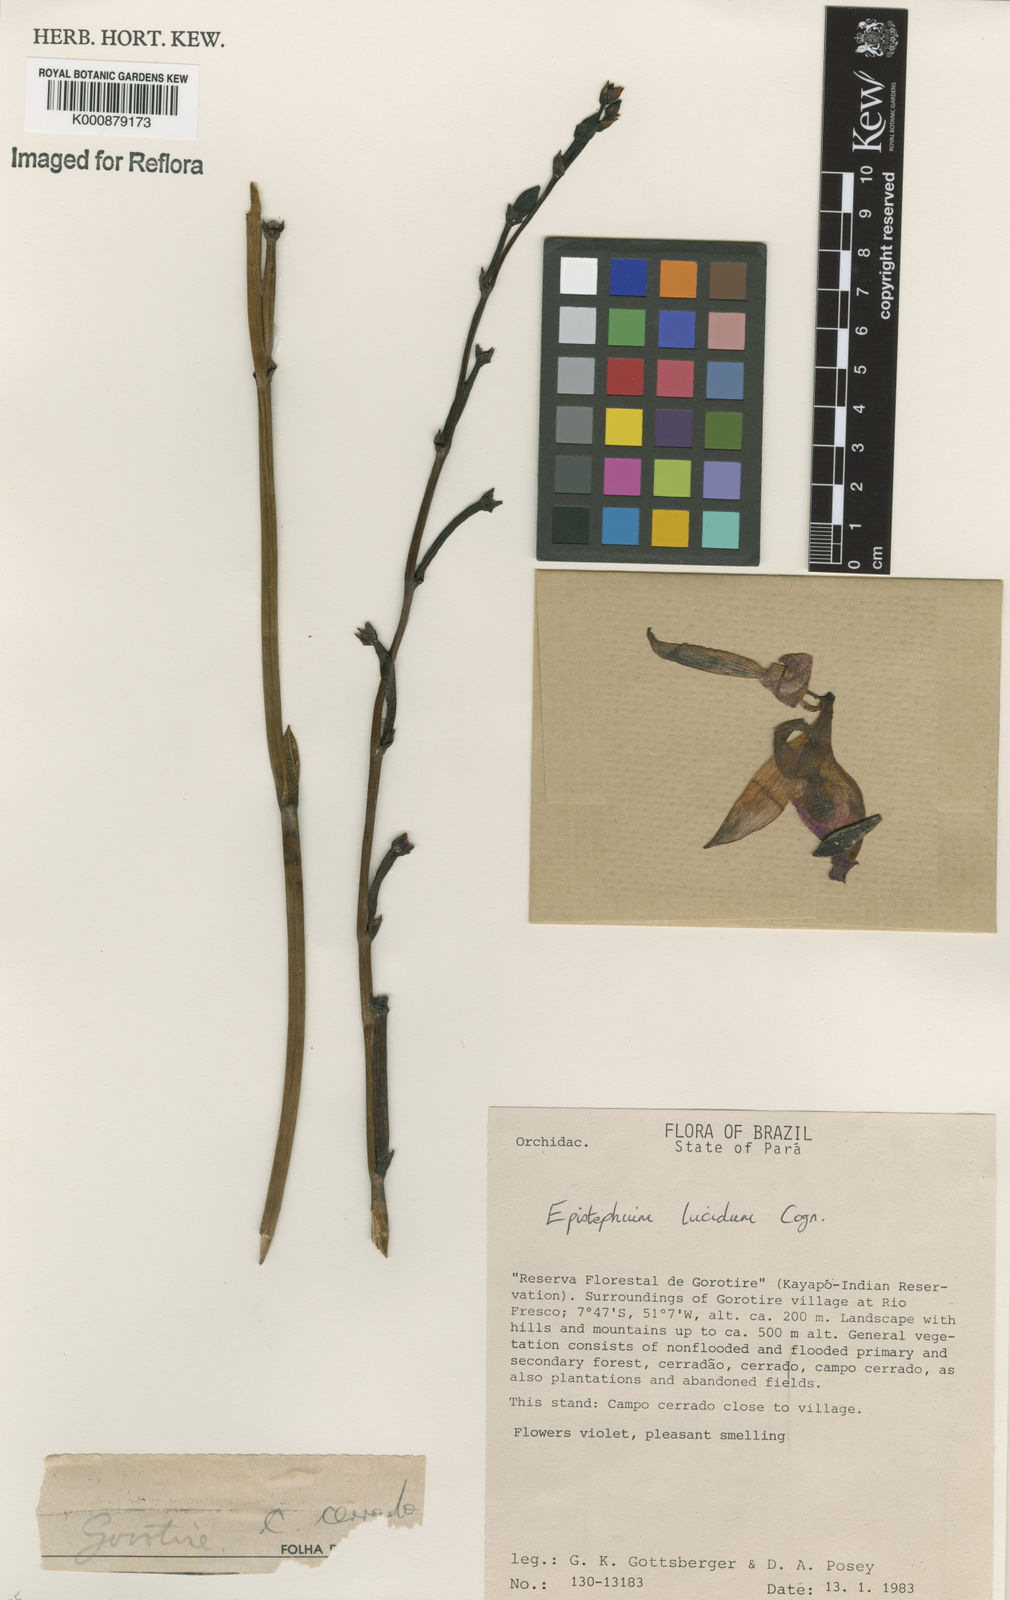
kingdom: Plantae
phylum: Tracheophyta
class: Liliopsida
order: Asparagales
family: Orchidaceae
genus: Epistephium
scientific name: Epistephium williamsii
